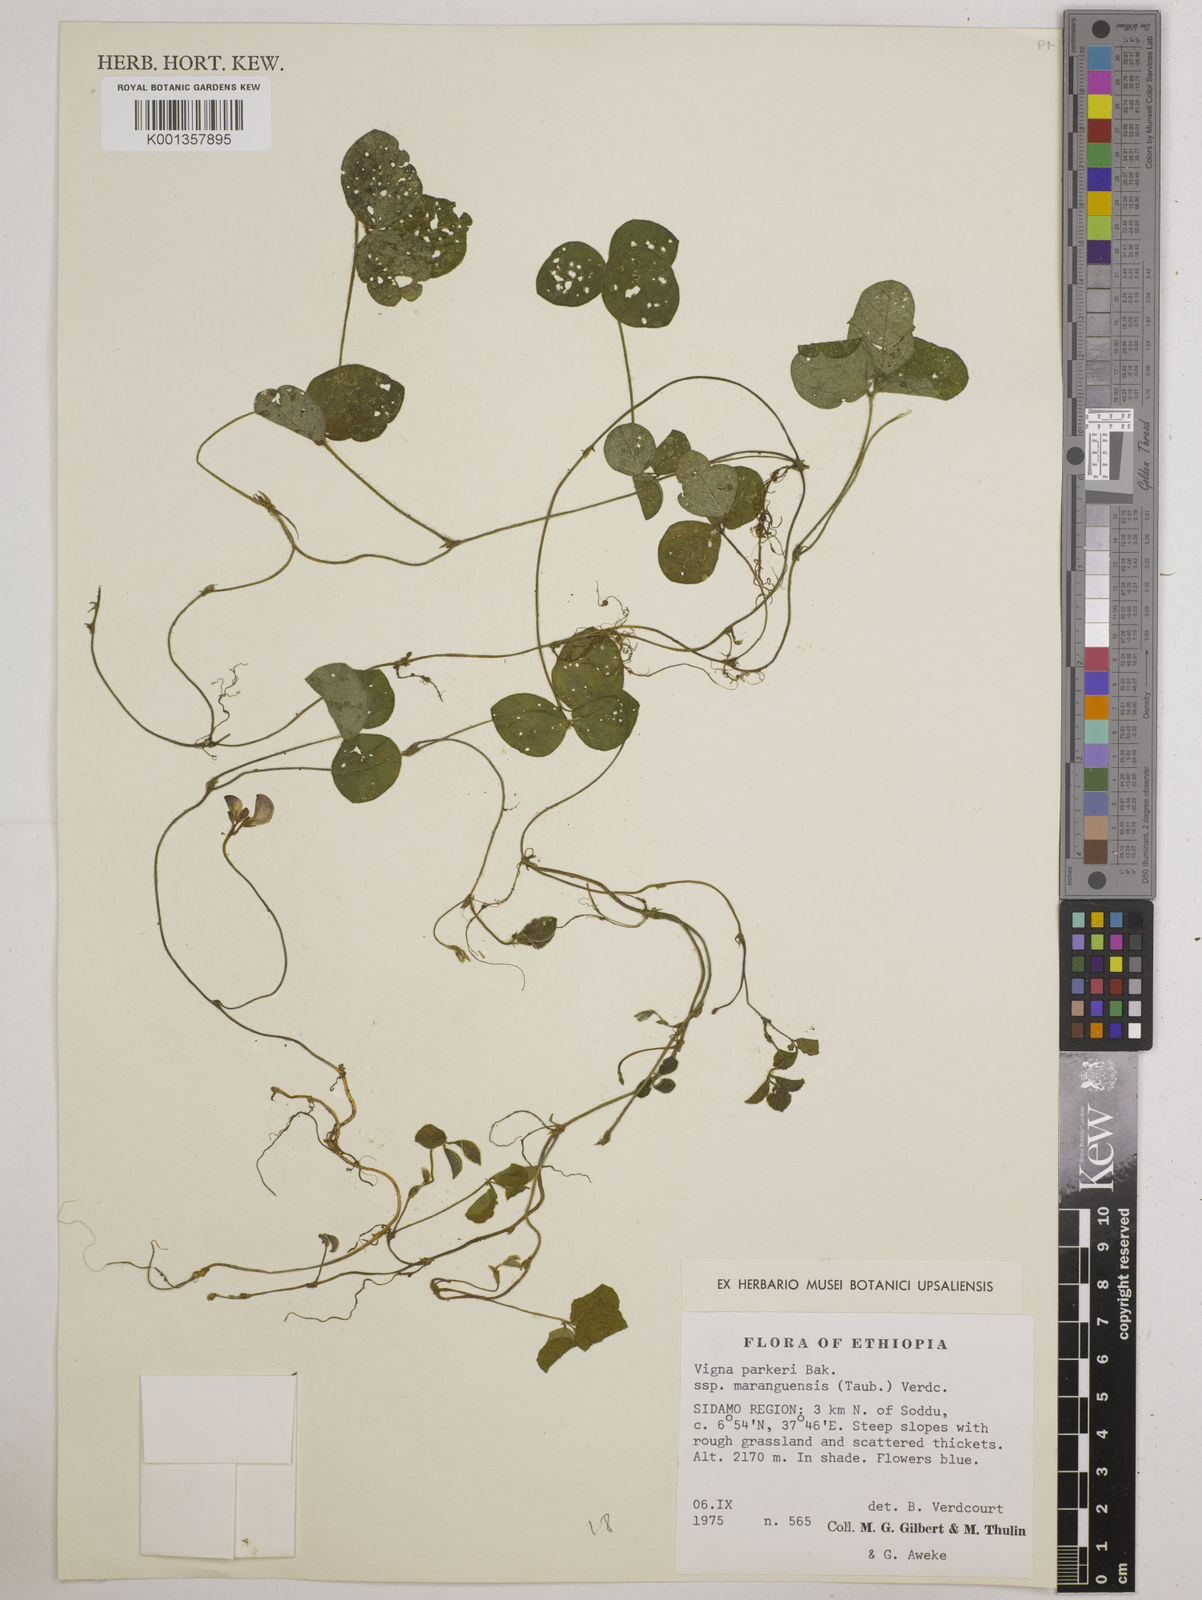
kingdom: Plantae
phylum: Tracheophyta
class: Magnoliopsida
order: Fabales
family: Fabaceae
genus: Vigna
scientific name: Vigna
